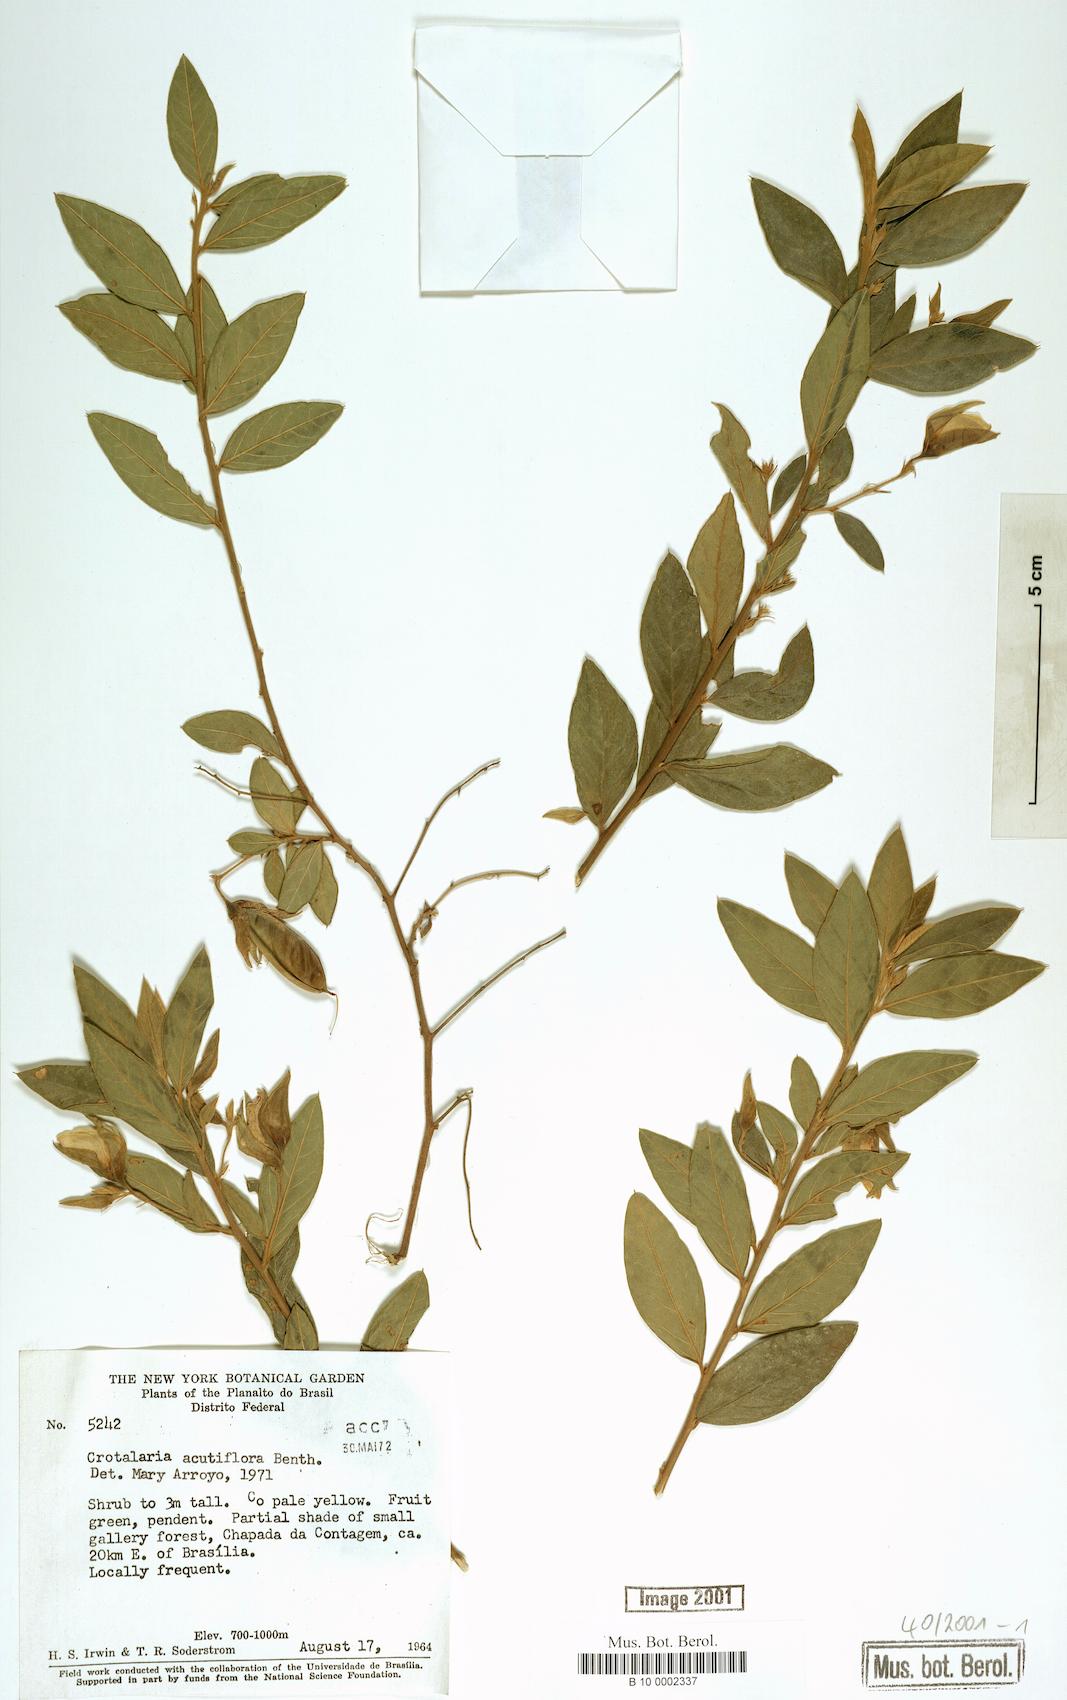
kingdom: Plantae
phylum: Tracheophyta
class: Magnoliopsida
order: Fabales
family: Fabaceae
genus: Crotalaria
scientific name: Crotalaria grandiflora
